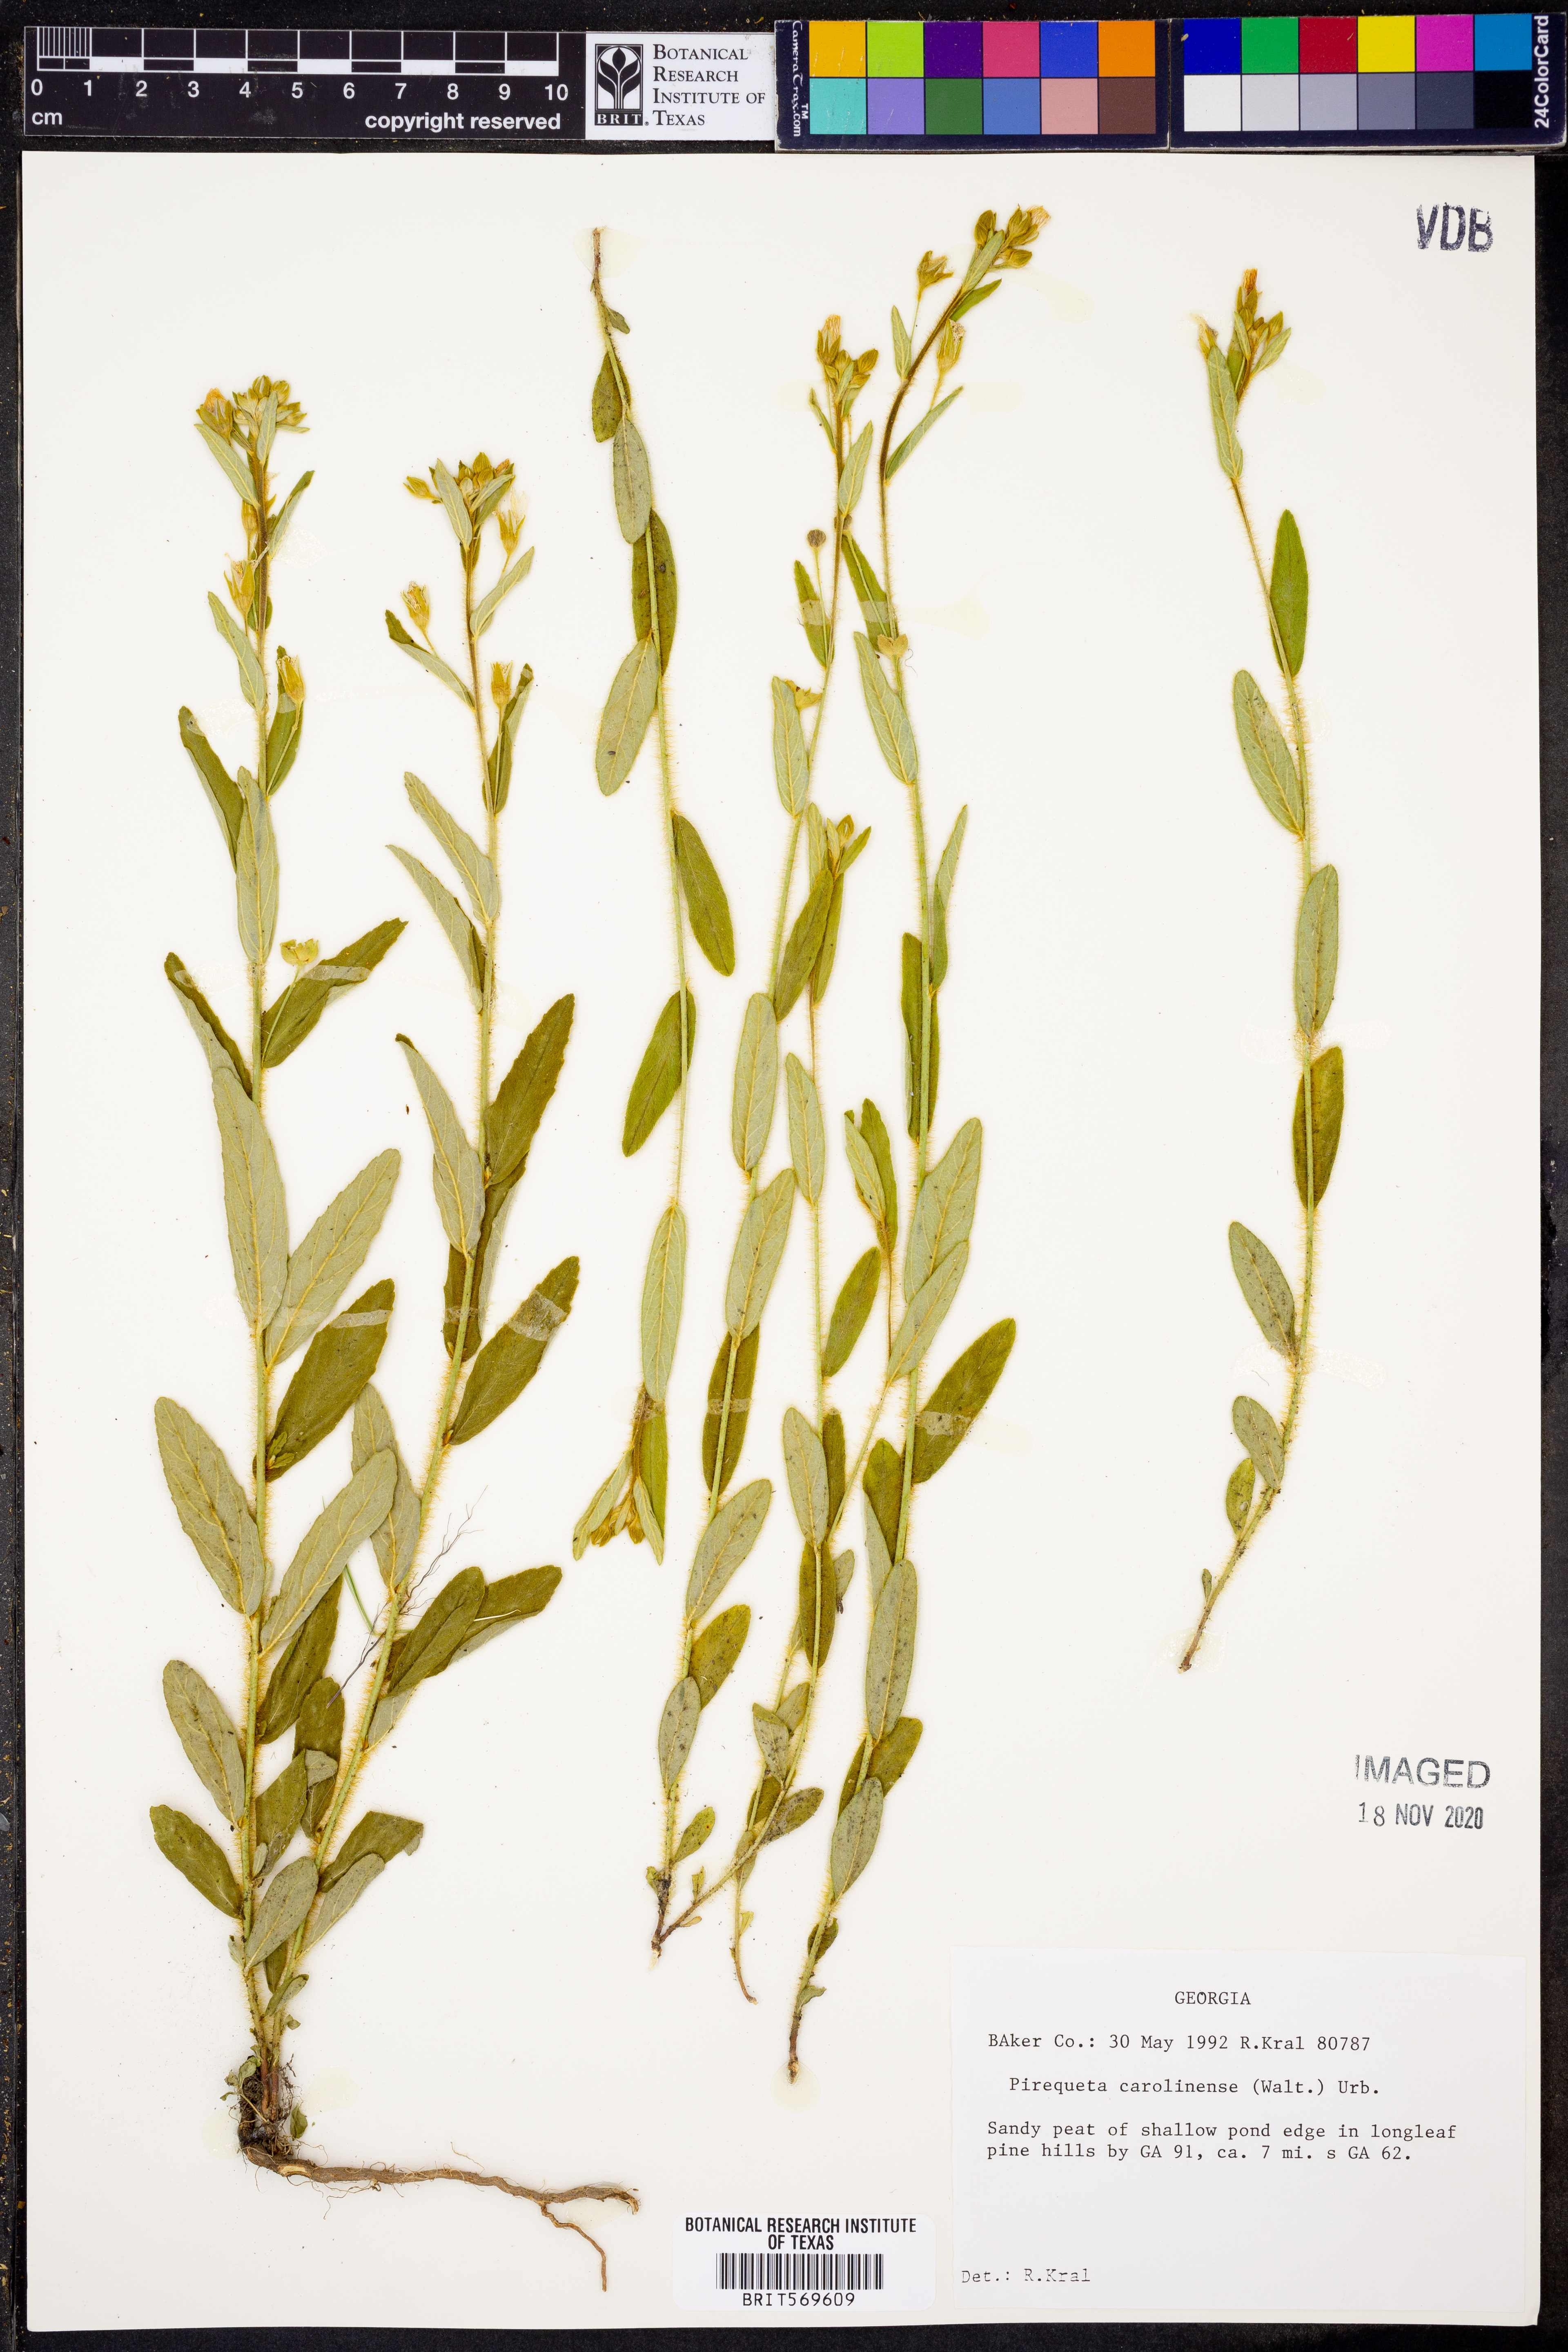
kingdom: Plantae
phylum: Tracheophyta
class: Magnoliopsida
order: Malpighiales
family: Turneraceae
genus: Piriqueta
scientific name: Piriqueta cistoides
